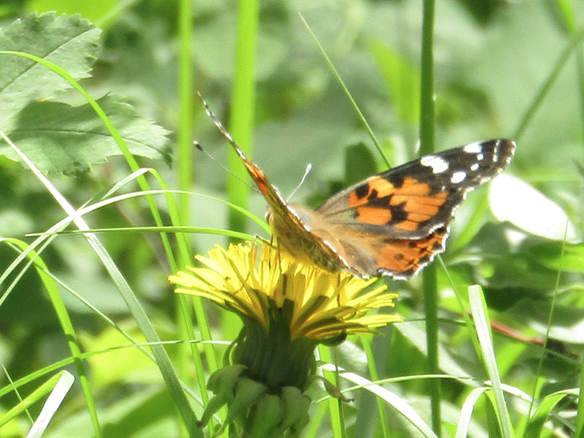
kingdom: Animalia
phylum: Arthropoda
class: Insecta
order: Lepidoptera
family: Nymphalidae
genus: Vanessa
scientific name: Vanessa cardui
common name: Painted Lady
